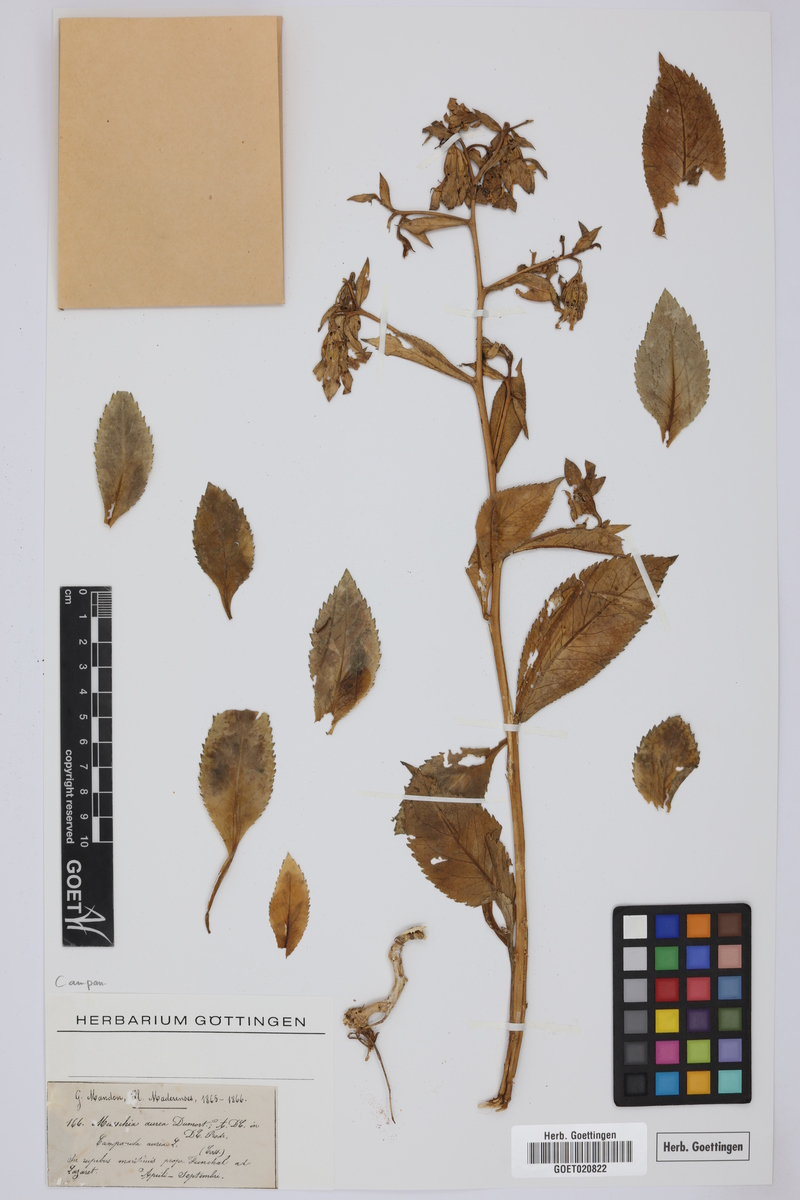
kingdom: Plantae
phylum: Tracheophyta
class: Magnoliopsida
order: Asterales
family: Campanulaceae
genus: Musschia
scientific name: Musschia aurea
